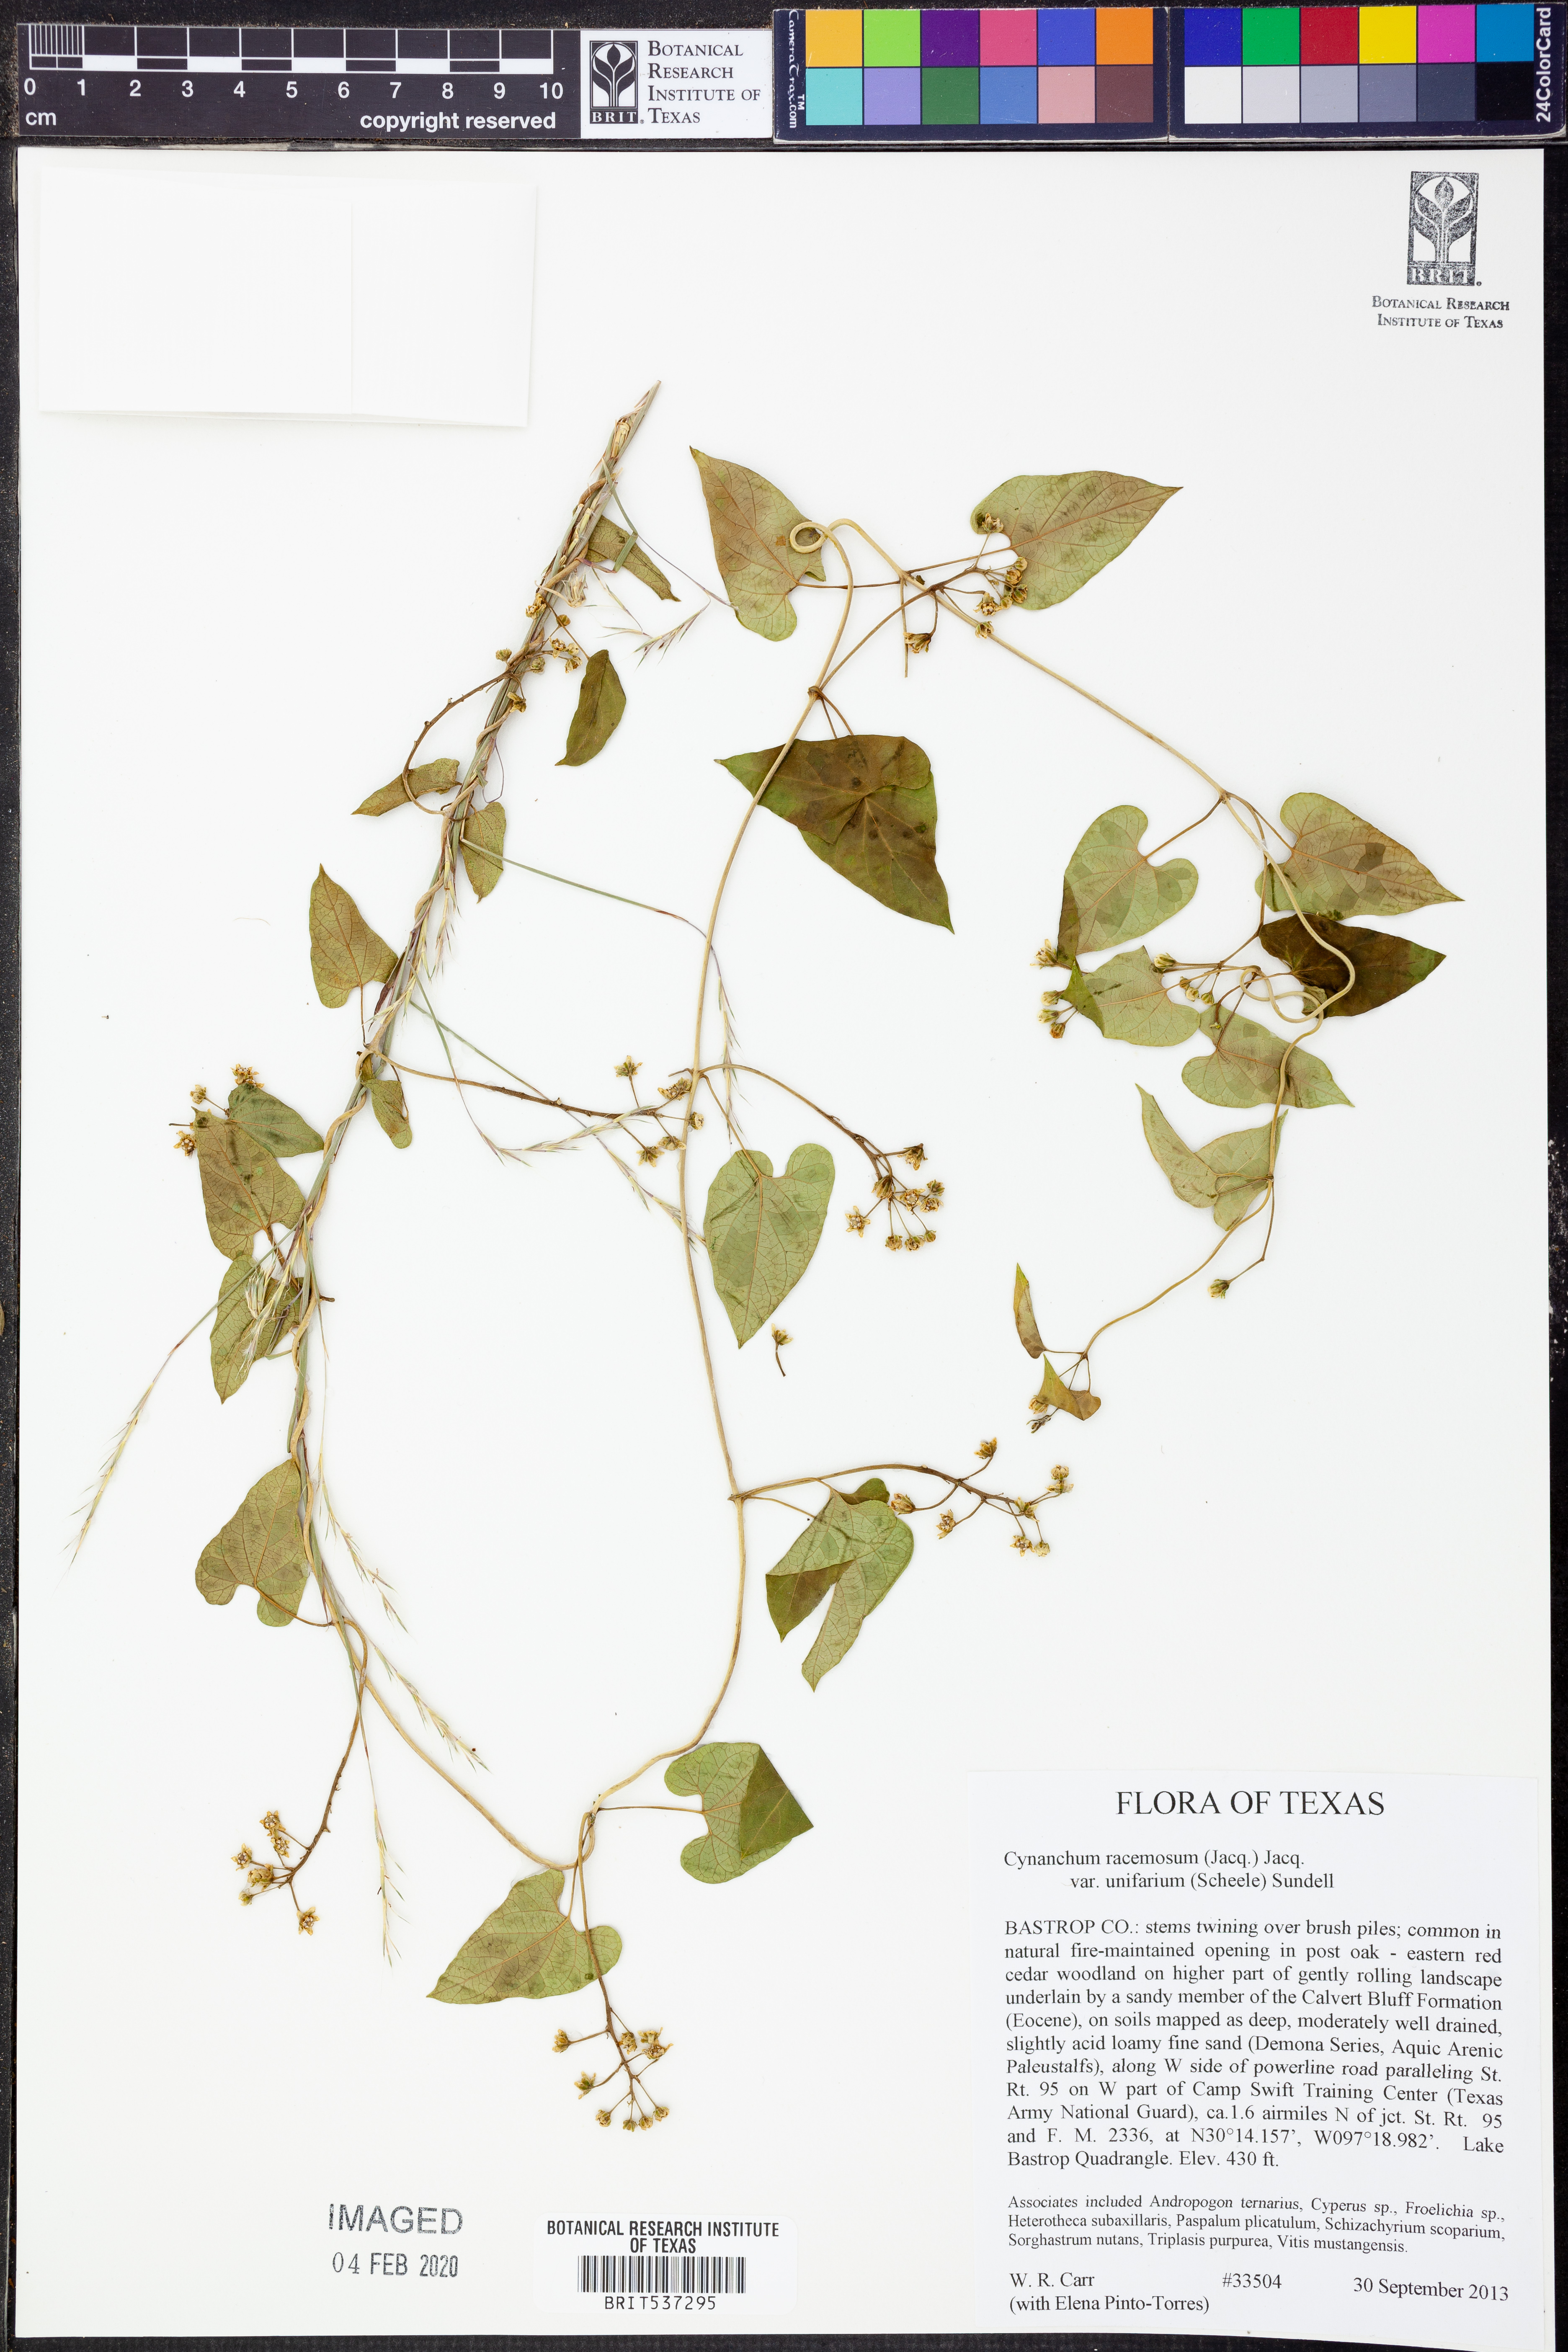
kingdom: Plantae
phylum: Tracheophyta
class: Magnoliopsida
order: Gentianales
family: Apocynaceae
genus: Cynanchum
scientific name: Cynanchum racemosum
